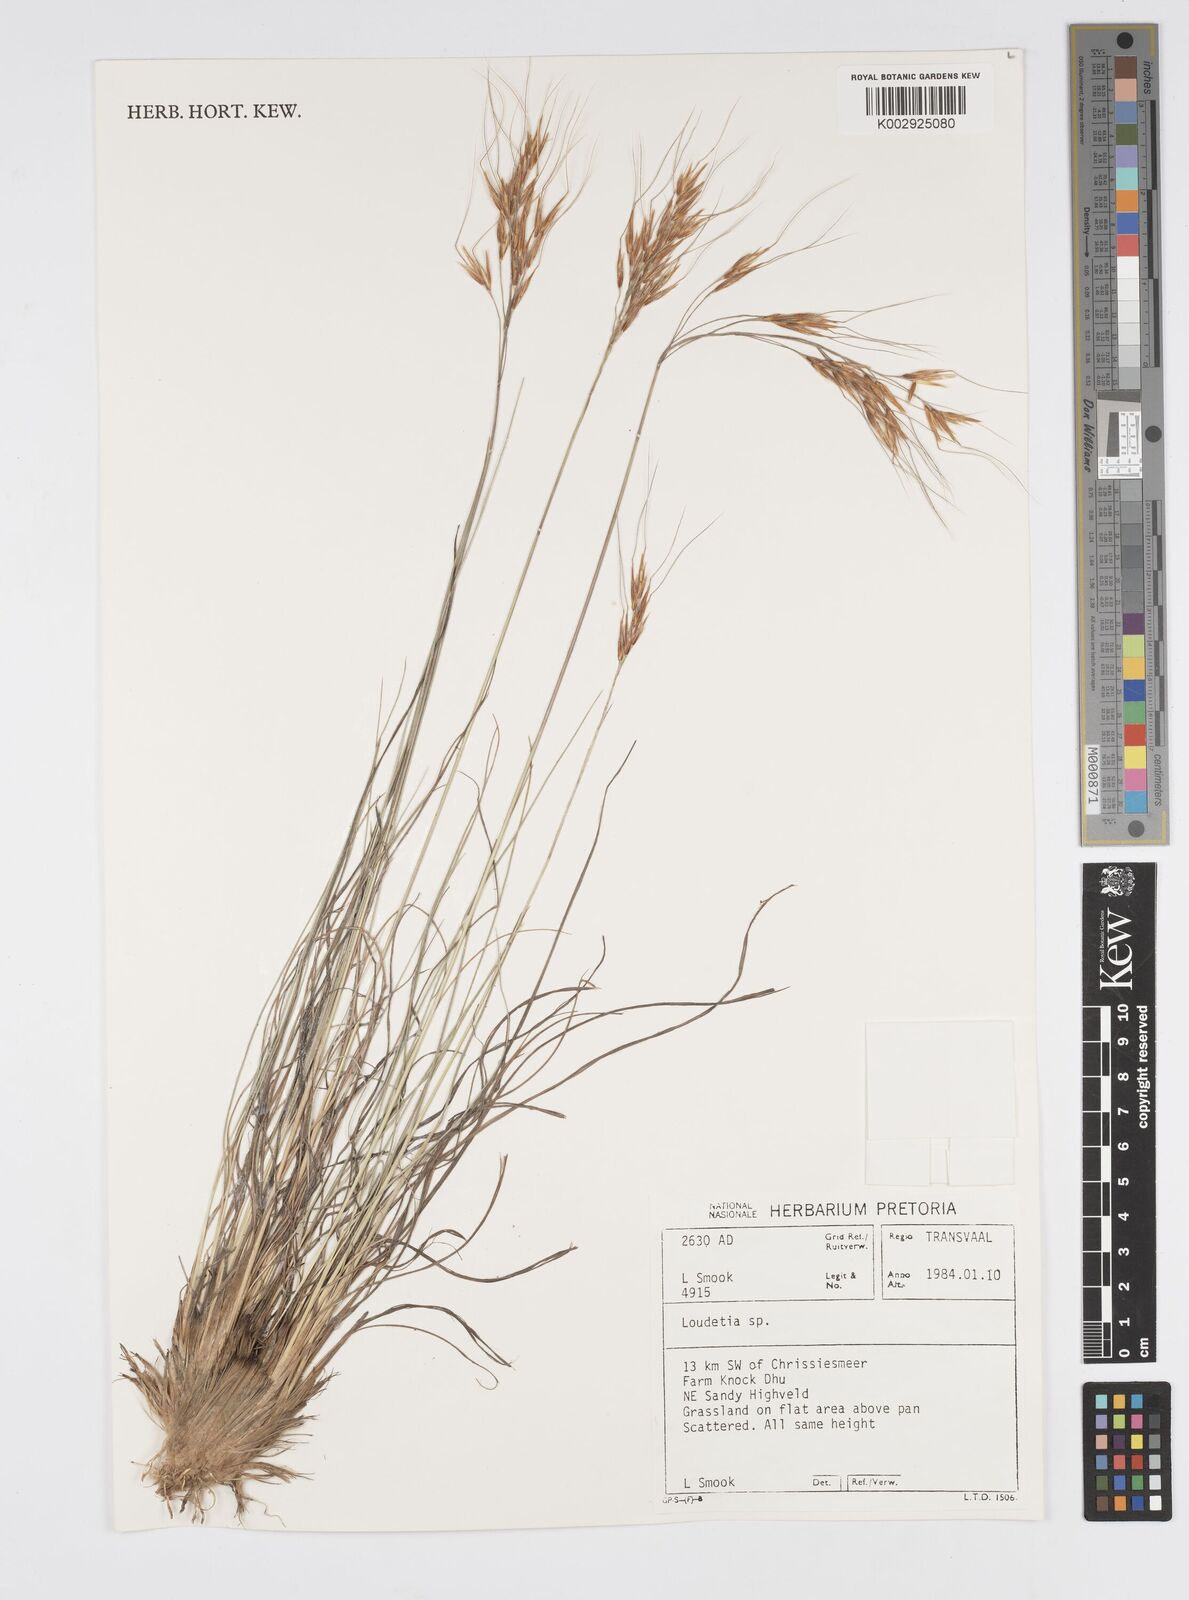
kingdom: Plantae
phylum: Tracheophyta
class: Liliopsida
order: Poales
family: Poaceae
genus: Loudetia
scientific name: Loudetia
